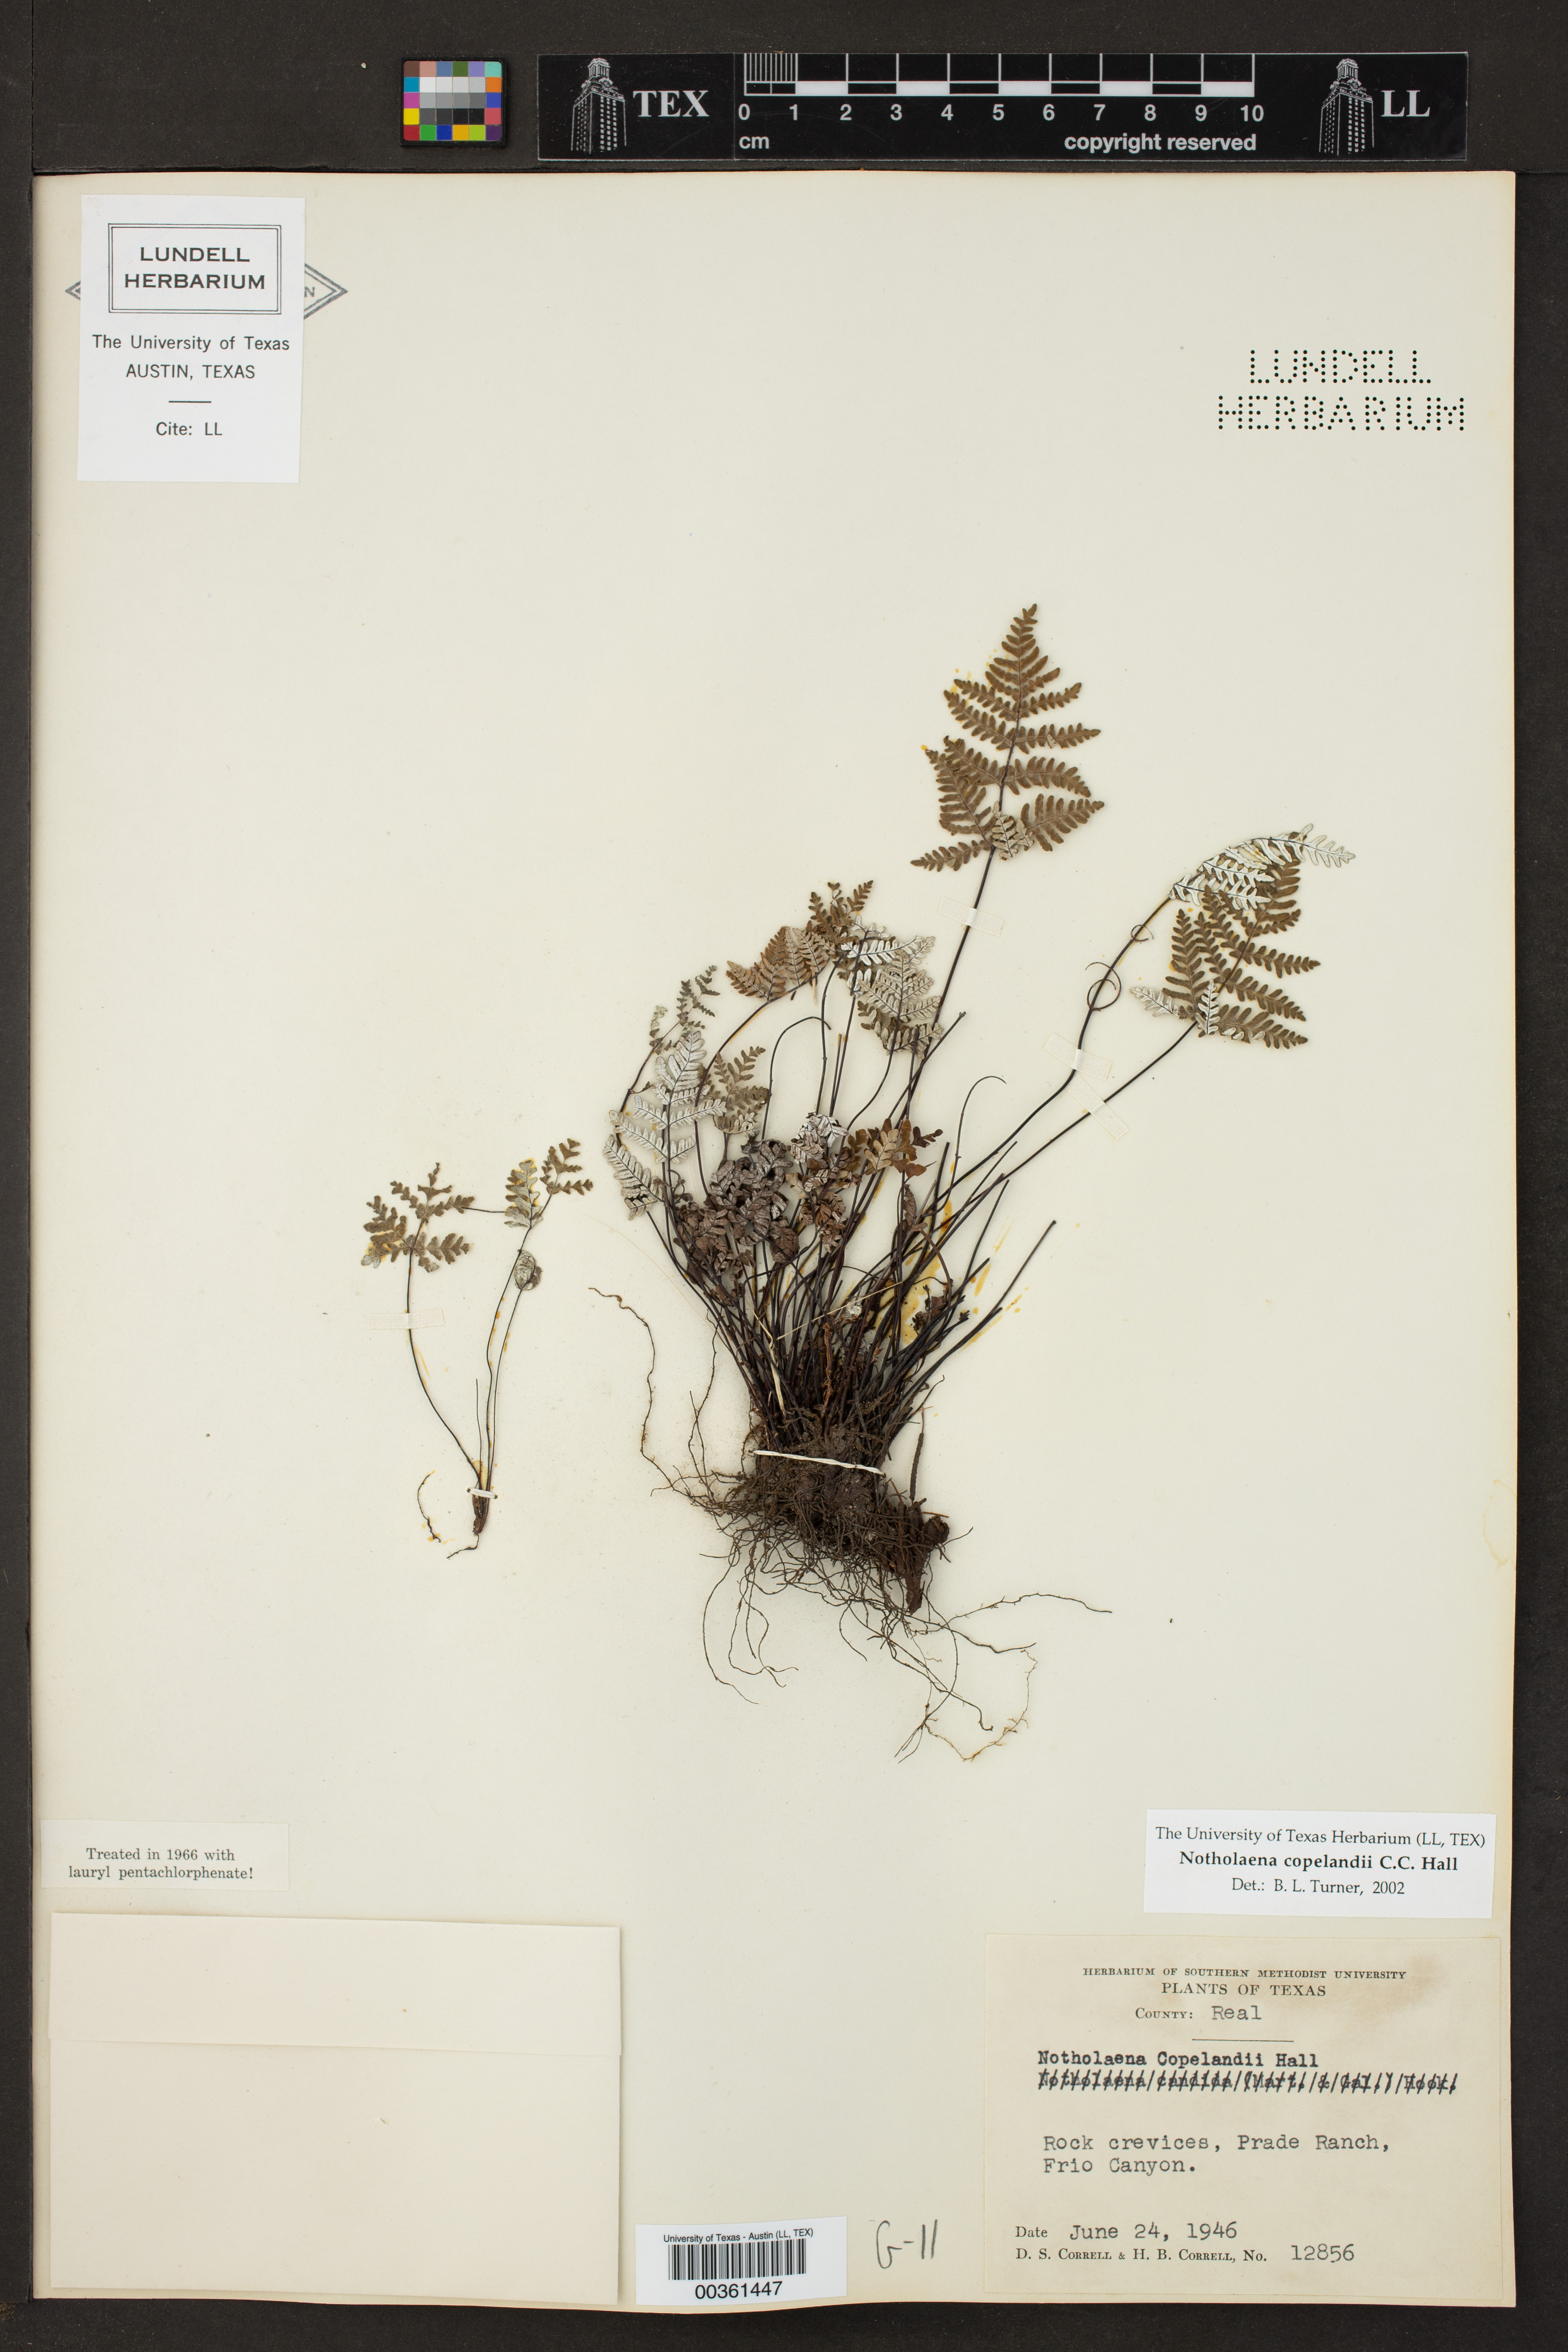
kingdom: Plantae
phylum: Tracheophyta
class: Polypodiopsida
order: Polypodiales
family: Pteridaceae
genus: Notholaena
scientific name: Notholaena candida
